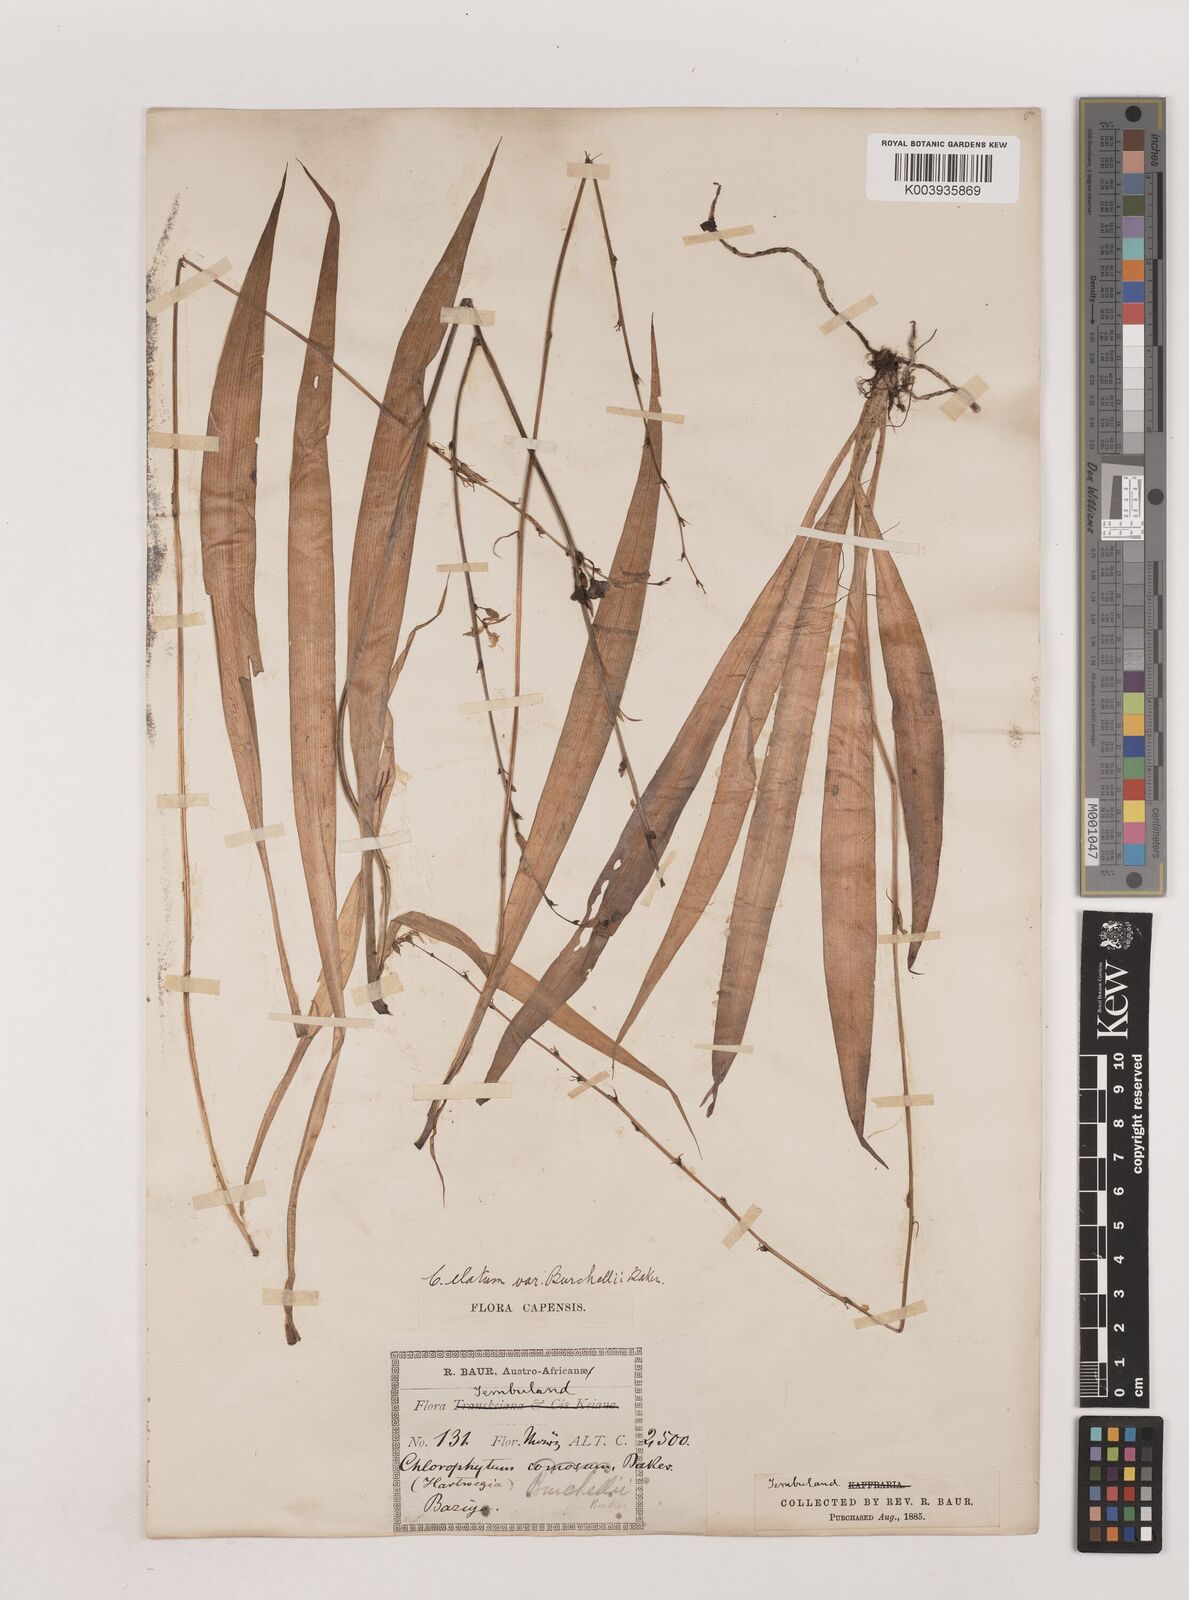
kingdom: Plantae
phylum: Tracheophyta
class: Liliopsida
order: Asparagales
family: Asparagaceae
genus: Chlorophytum
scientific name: Chlorophytum comosum
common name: Spider plant
